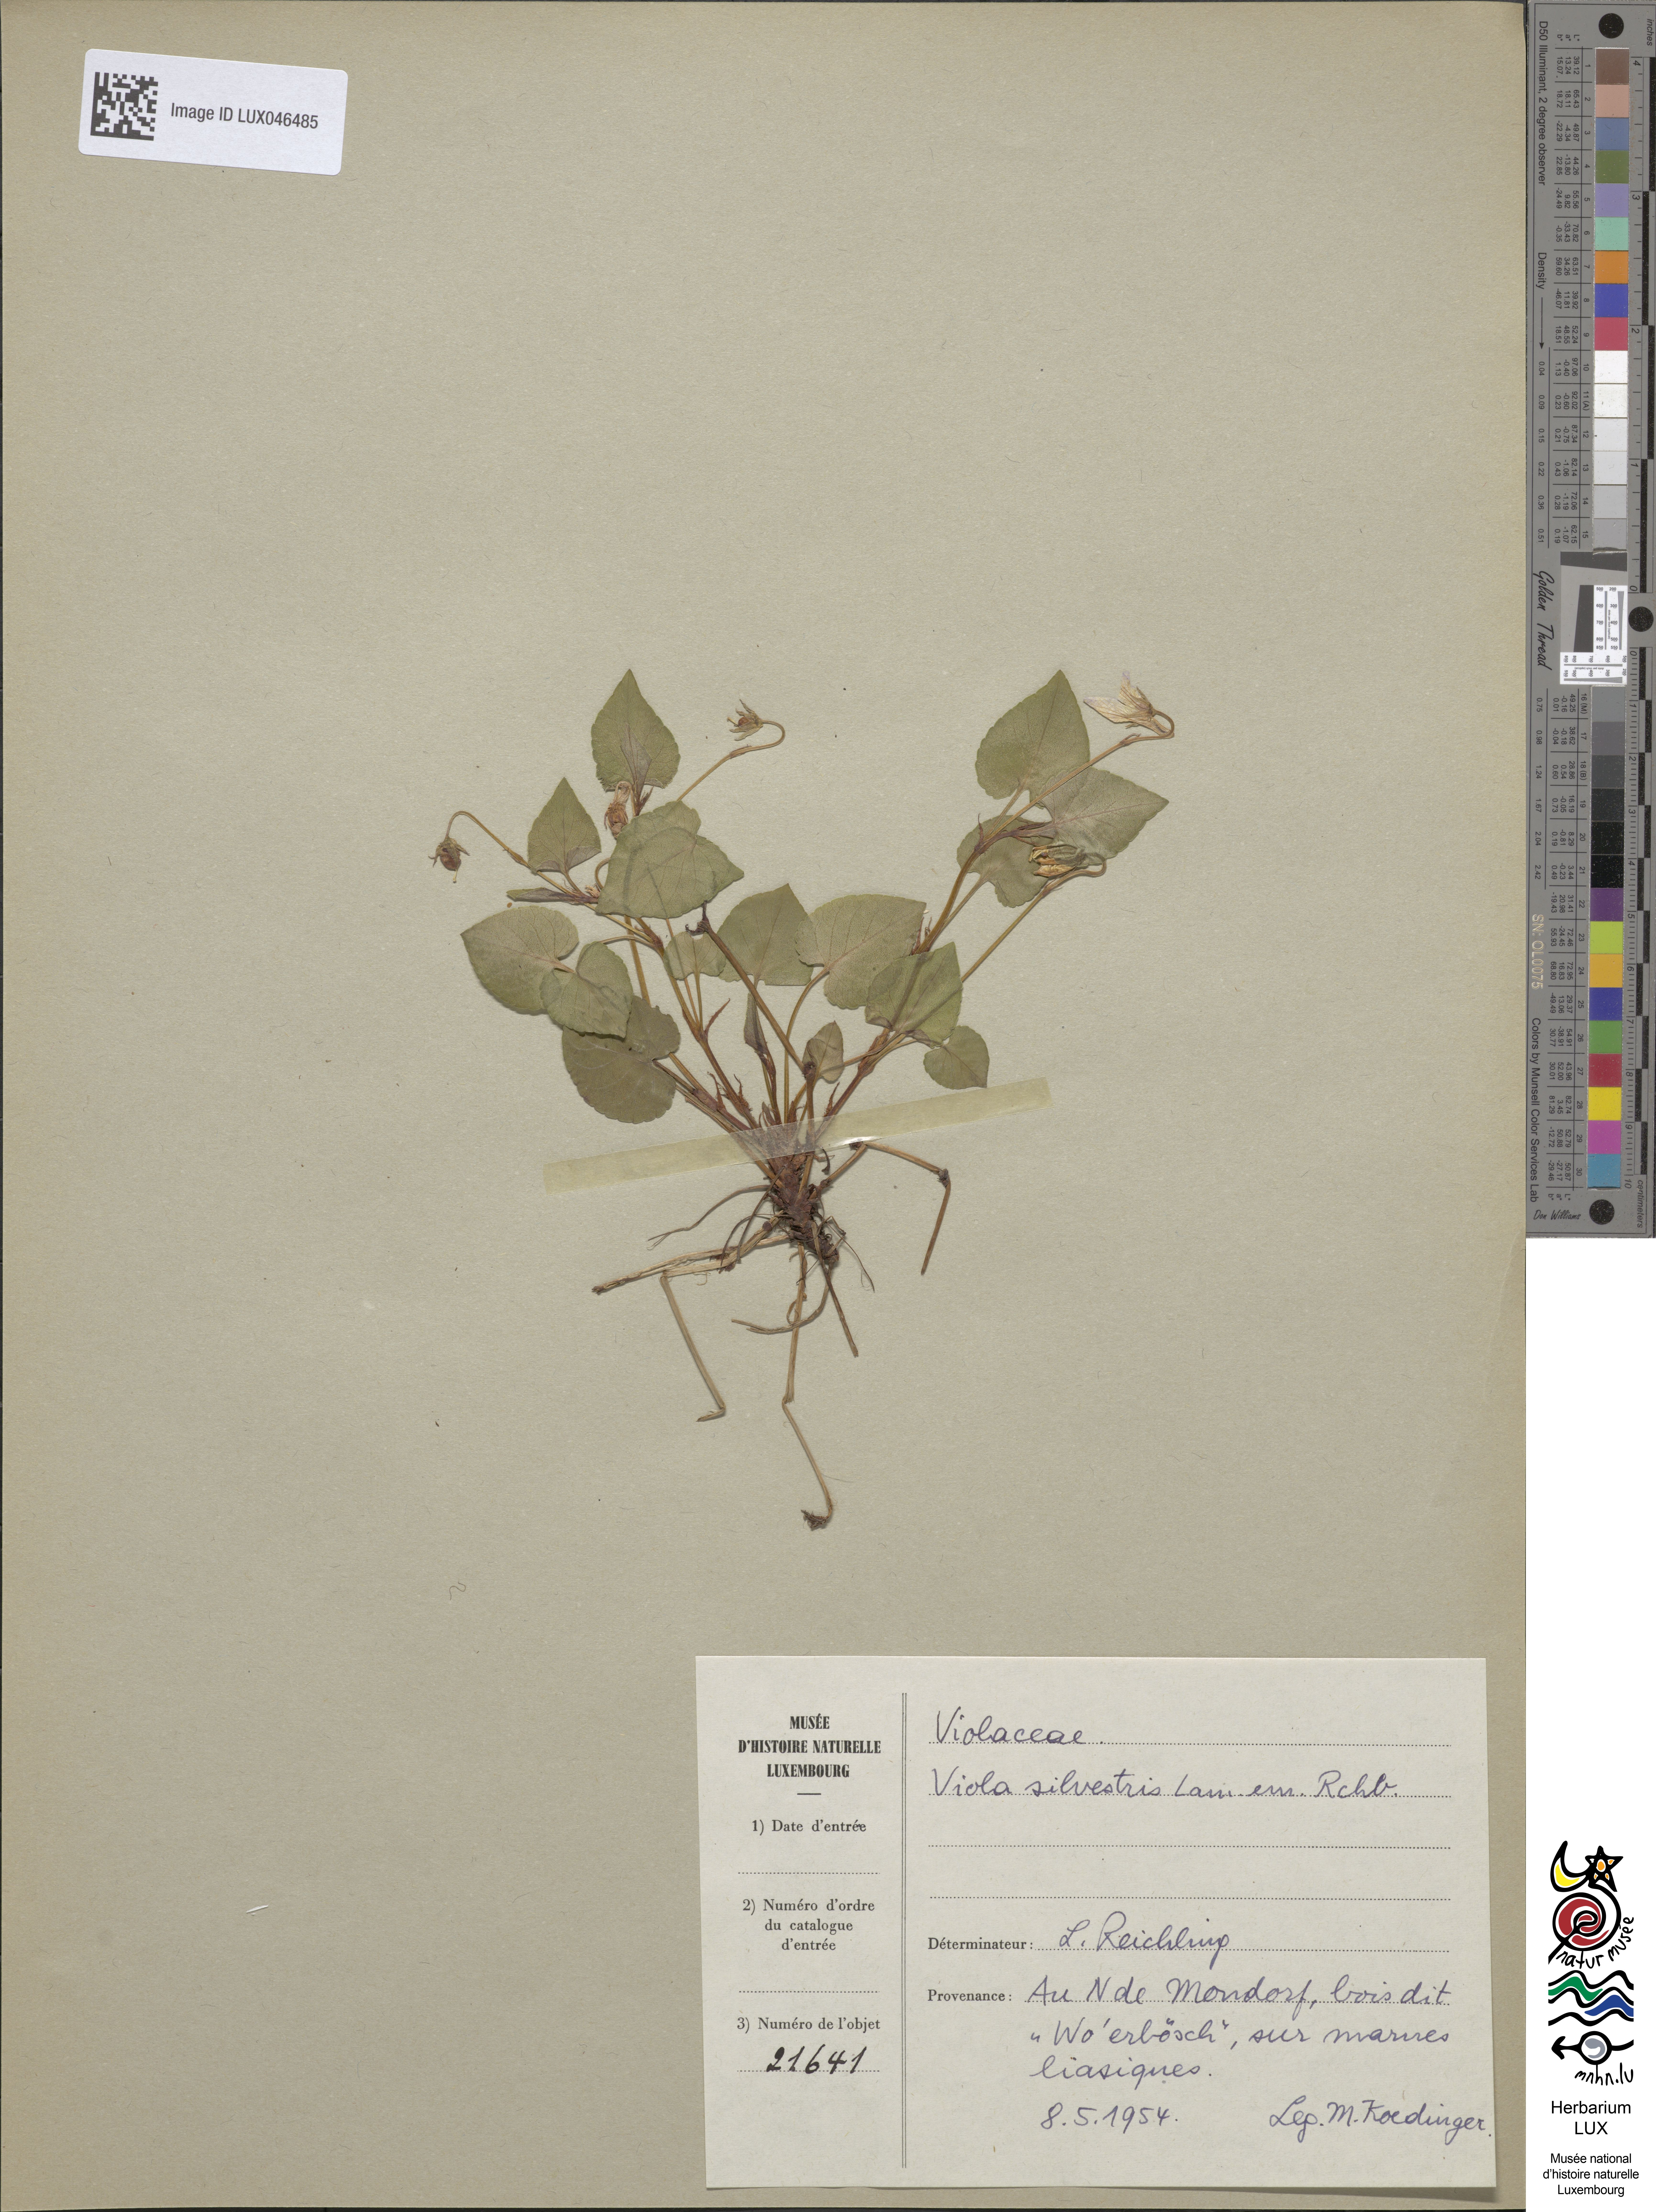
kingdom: Plantae
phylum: Tracheophyta
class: Magnoliopsida
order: Malpighiales
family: Violaceae
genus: Viola
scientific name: Viola reichenbachiana
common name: Early dog-violet
